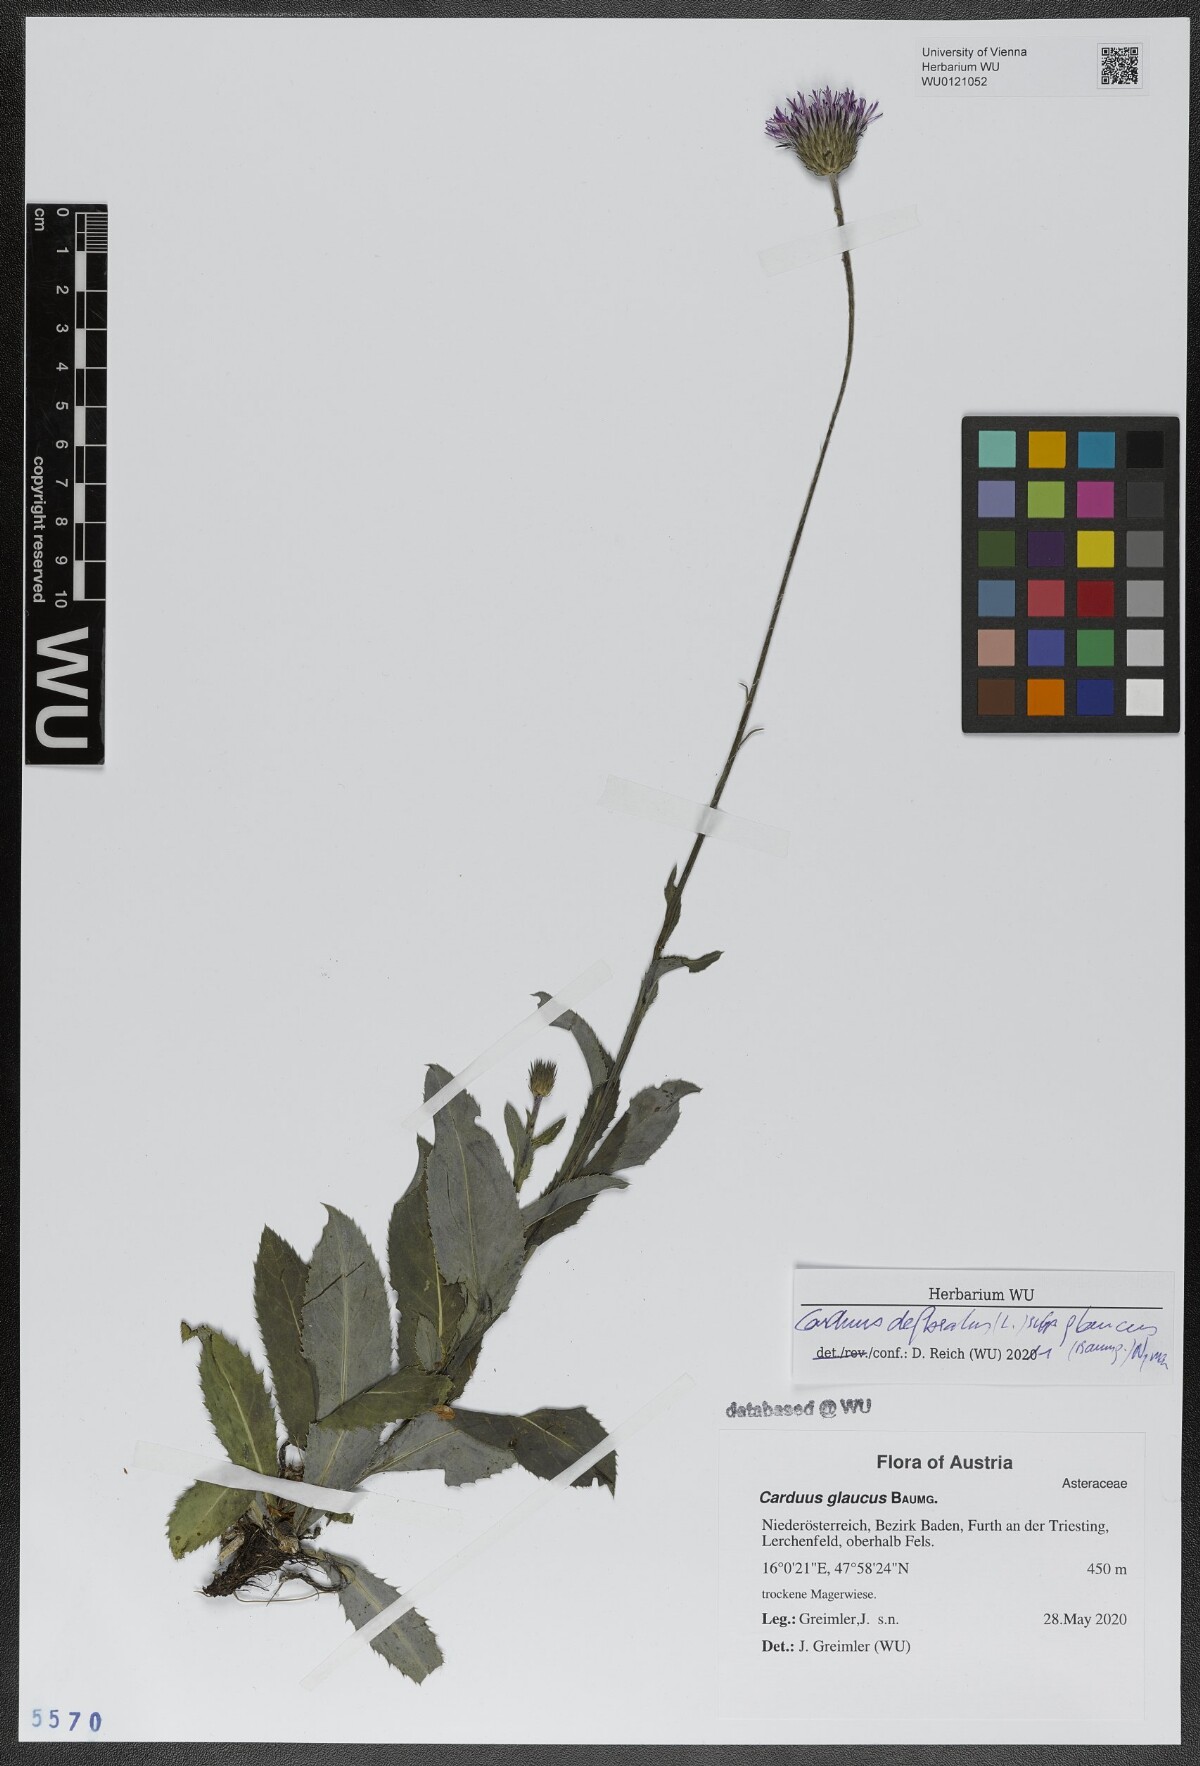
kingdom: Plantae
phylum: Tracheophyta
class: Magnoliopsida
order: Asterales
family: Asteraceae
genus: Carduus
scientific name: Carduus defloratus
